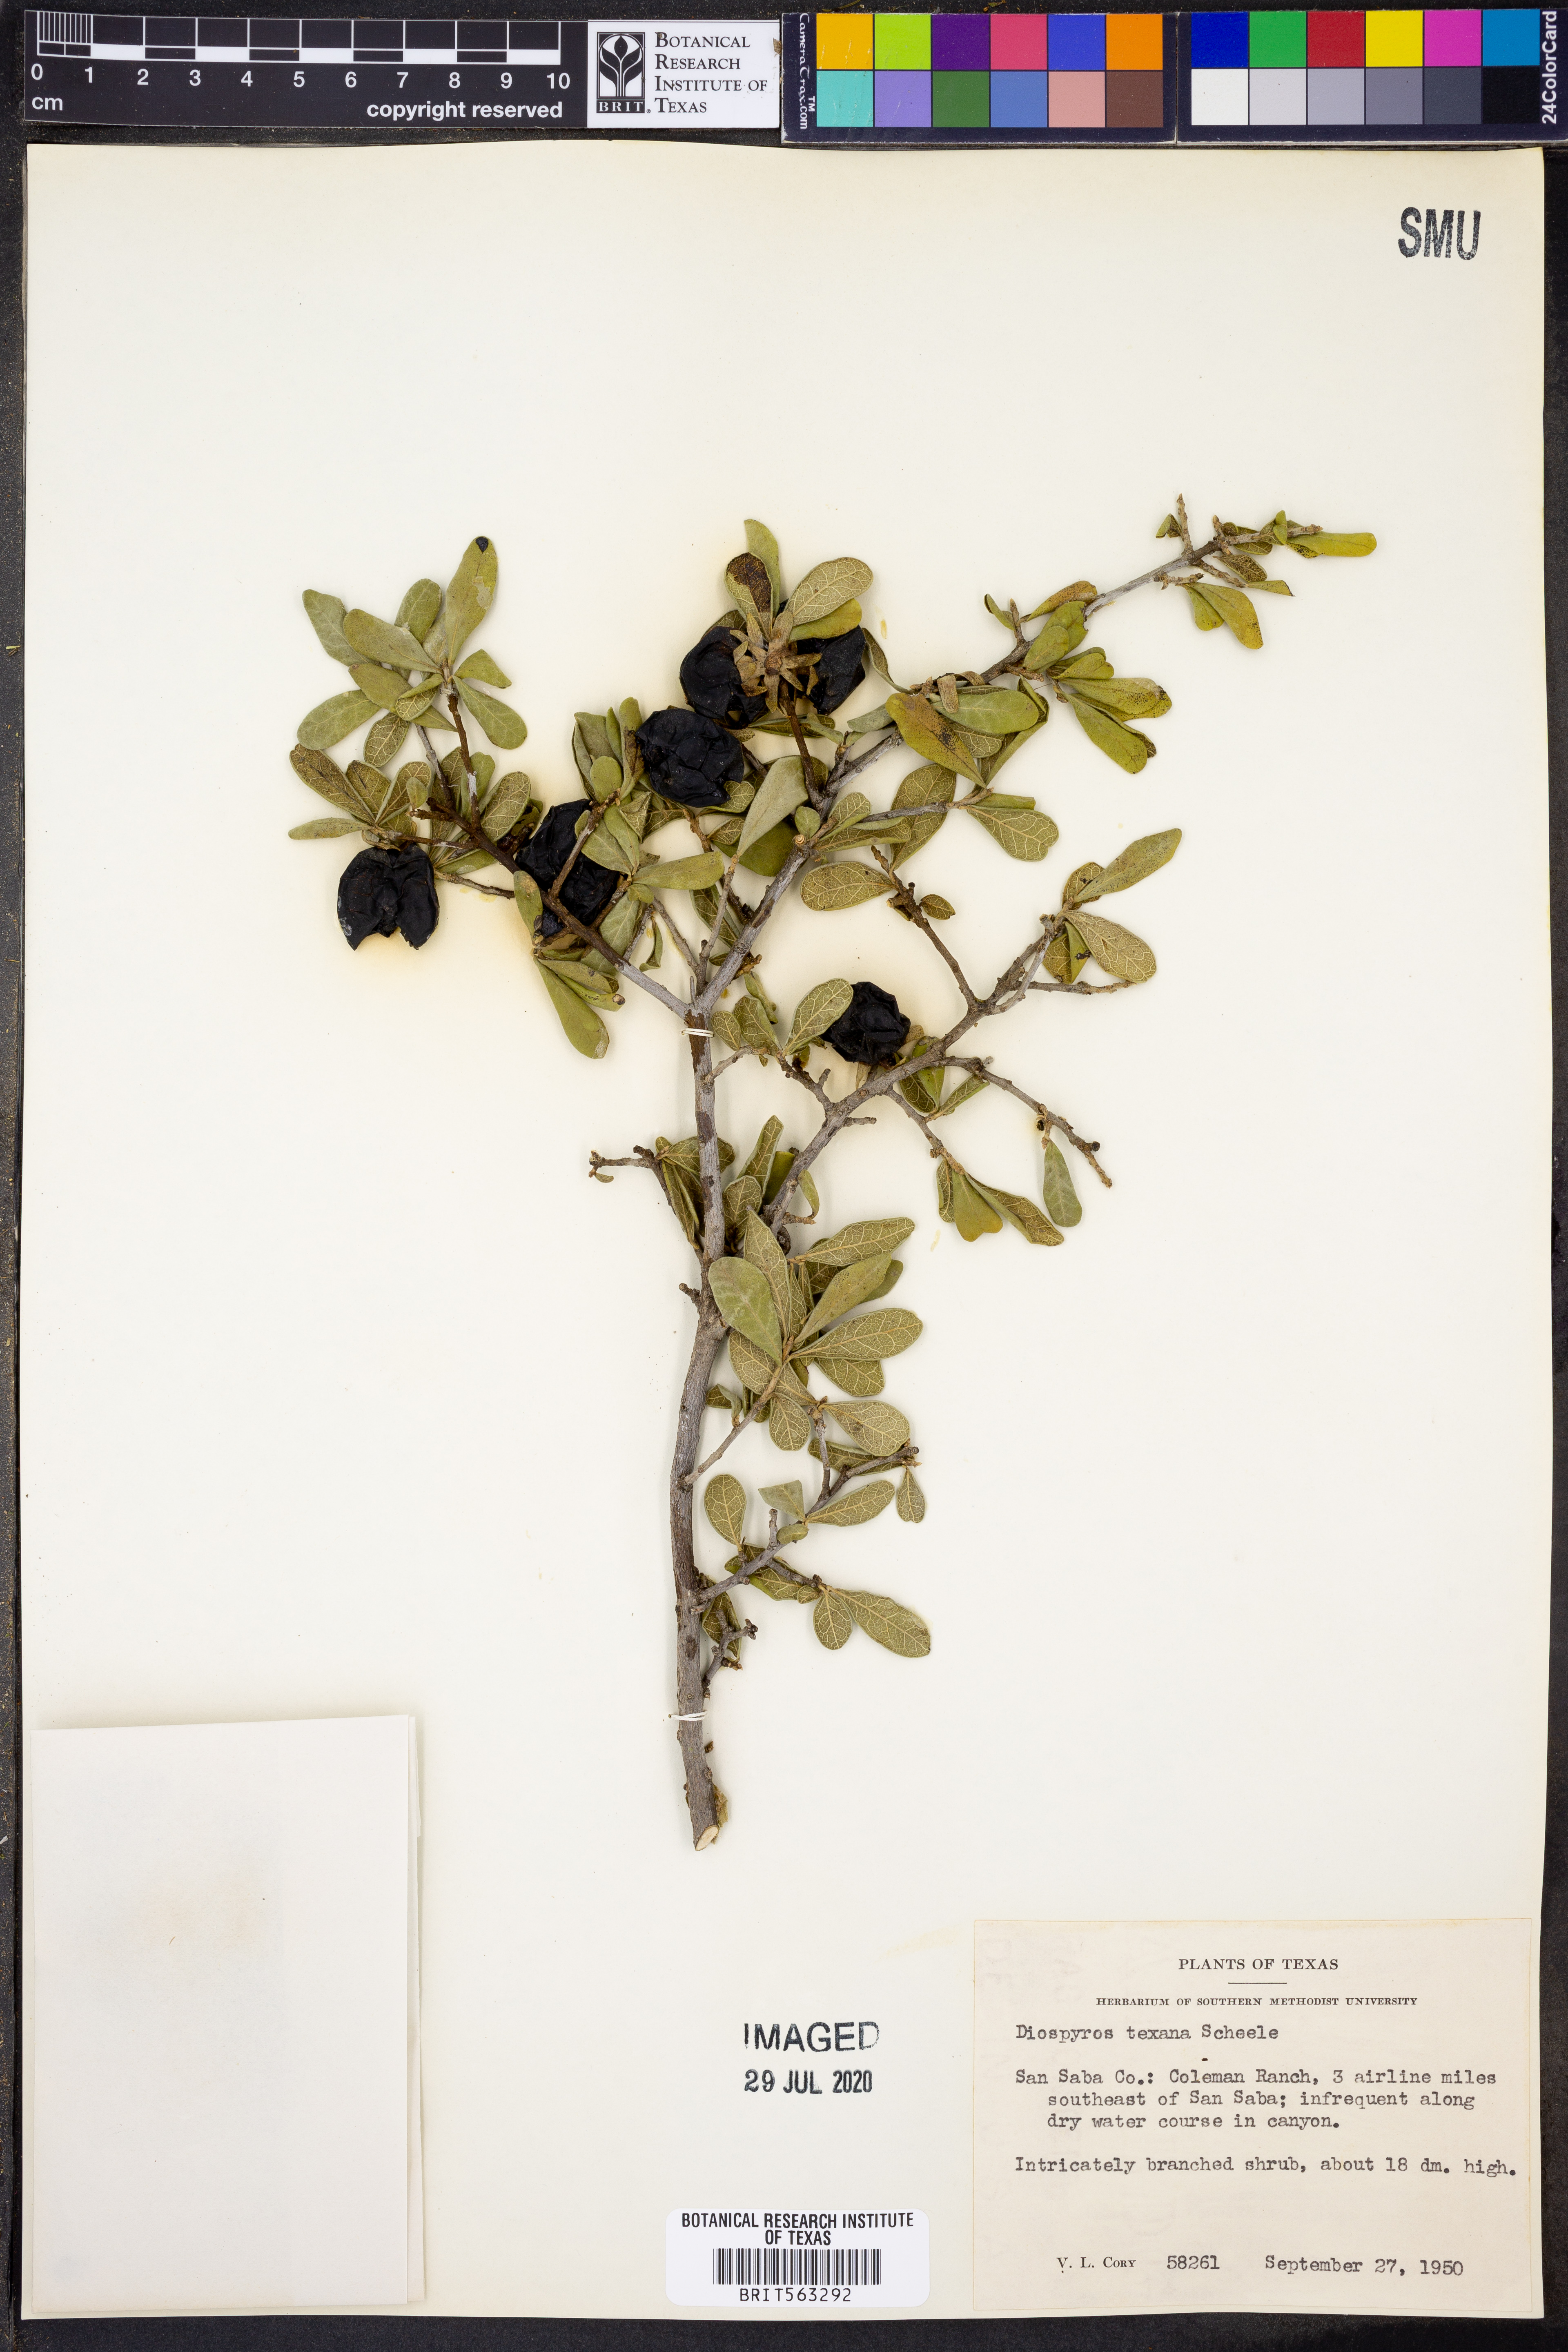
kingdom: Plantae
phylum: Tracheophyta
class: Magnoliopsida
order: Ericales
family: Ebenaceae
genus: Diospyros
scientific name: Diospyros texana
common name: Texas persimmon
